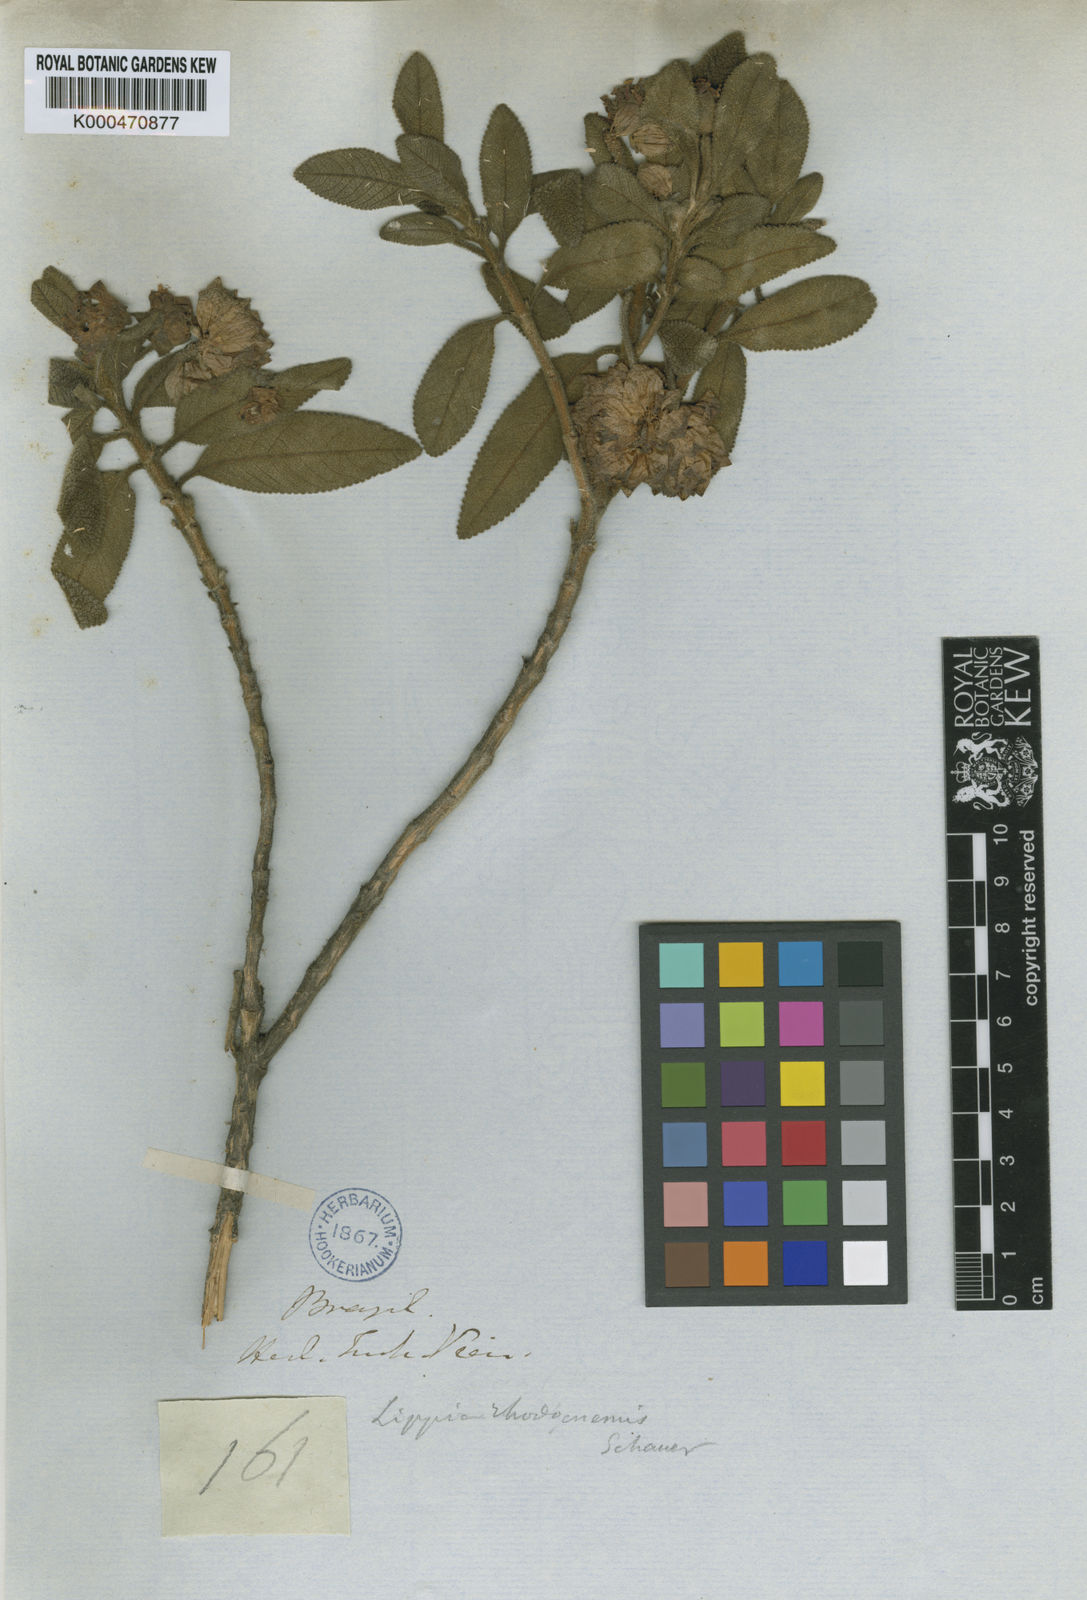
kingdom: Plantae
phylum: Tracheophyta
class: Magnoliopsida
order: Lamiales
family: Verbenaceae
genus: Lippia
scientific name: Lippia rhodocnemis
